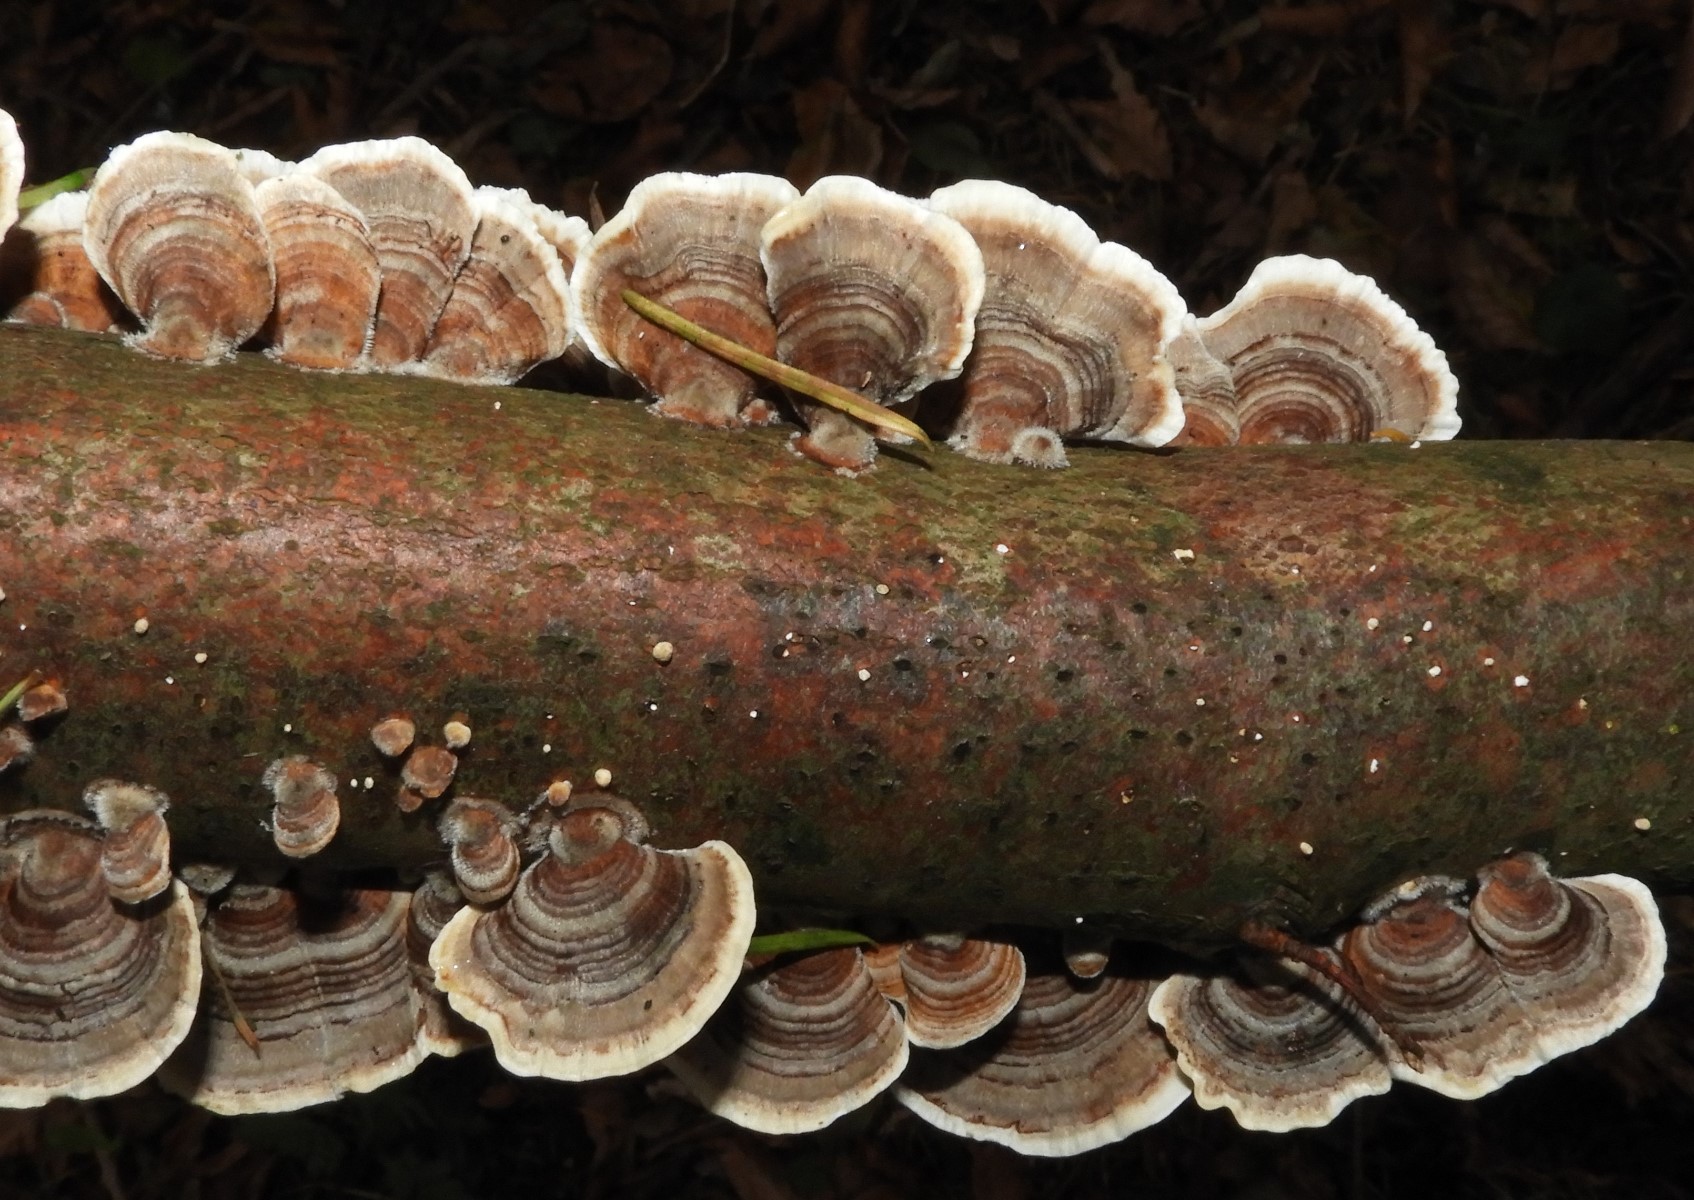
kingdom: Fungi
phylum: Basidiomycota
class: Agaricomycetes
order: Polyporales
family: Polyporaceae
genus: Trametes
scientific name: Trametes versicolor
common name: broget læderporesvamp
